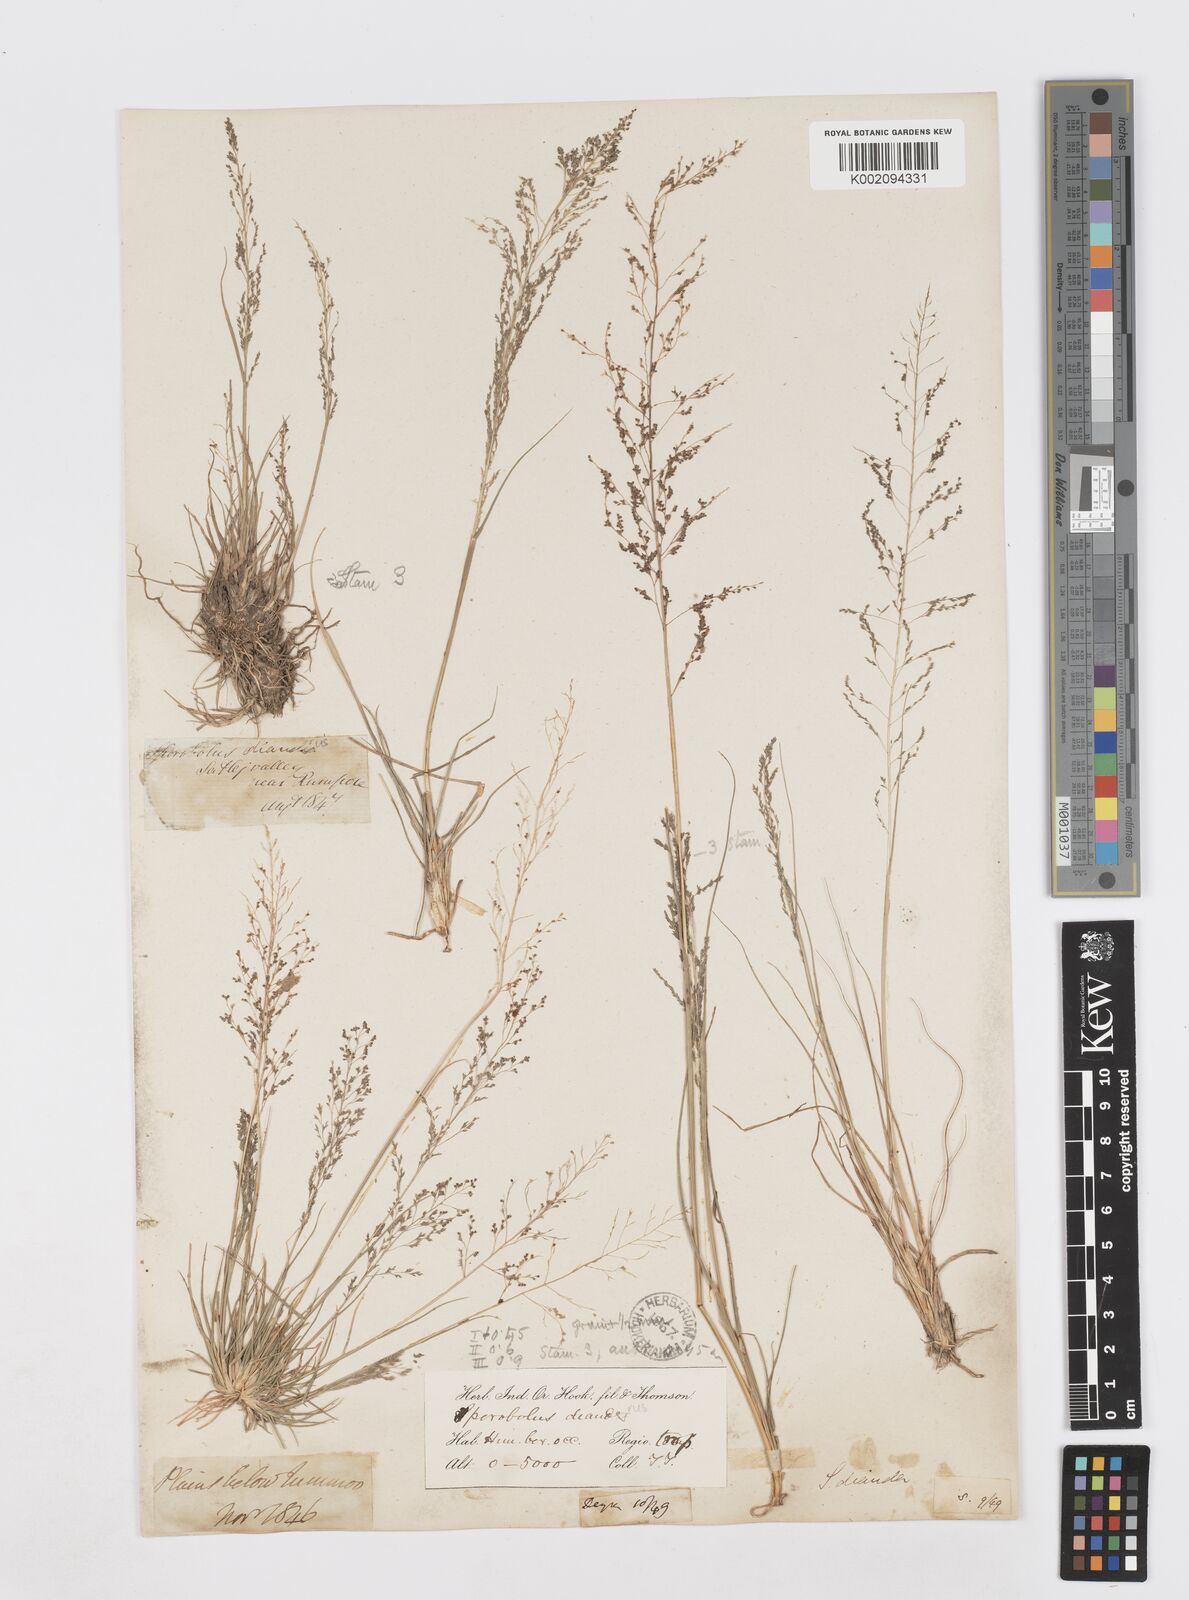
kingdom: Plantae
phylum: Tracheophyta
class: Liliopsida
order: Poales
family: Poaceae
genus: Sporobolus
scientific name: Sporobolus diandrus
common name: Tussock dropseed
